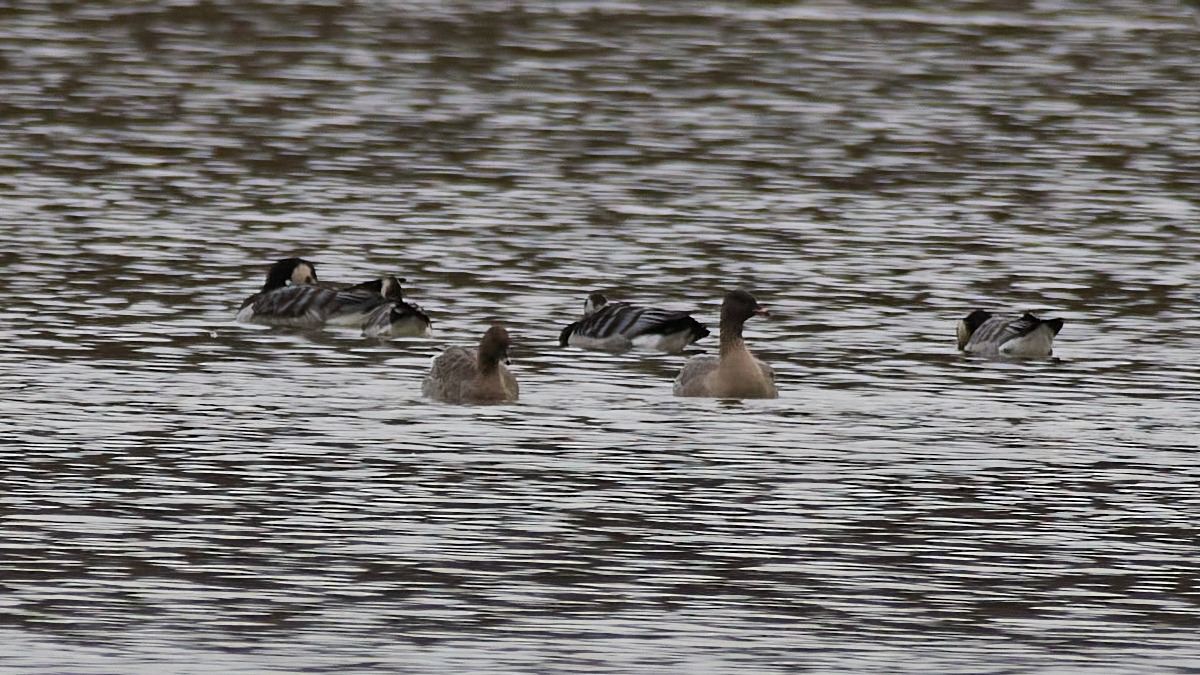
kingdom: Animalia
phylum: Chordata
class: Aves
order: Anseriformes
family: Anatidae
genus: Anser
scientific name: Anser brachyrhynchus
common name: Kortnæbbet gås
